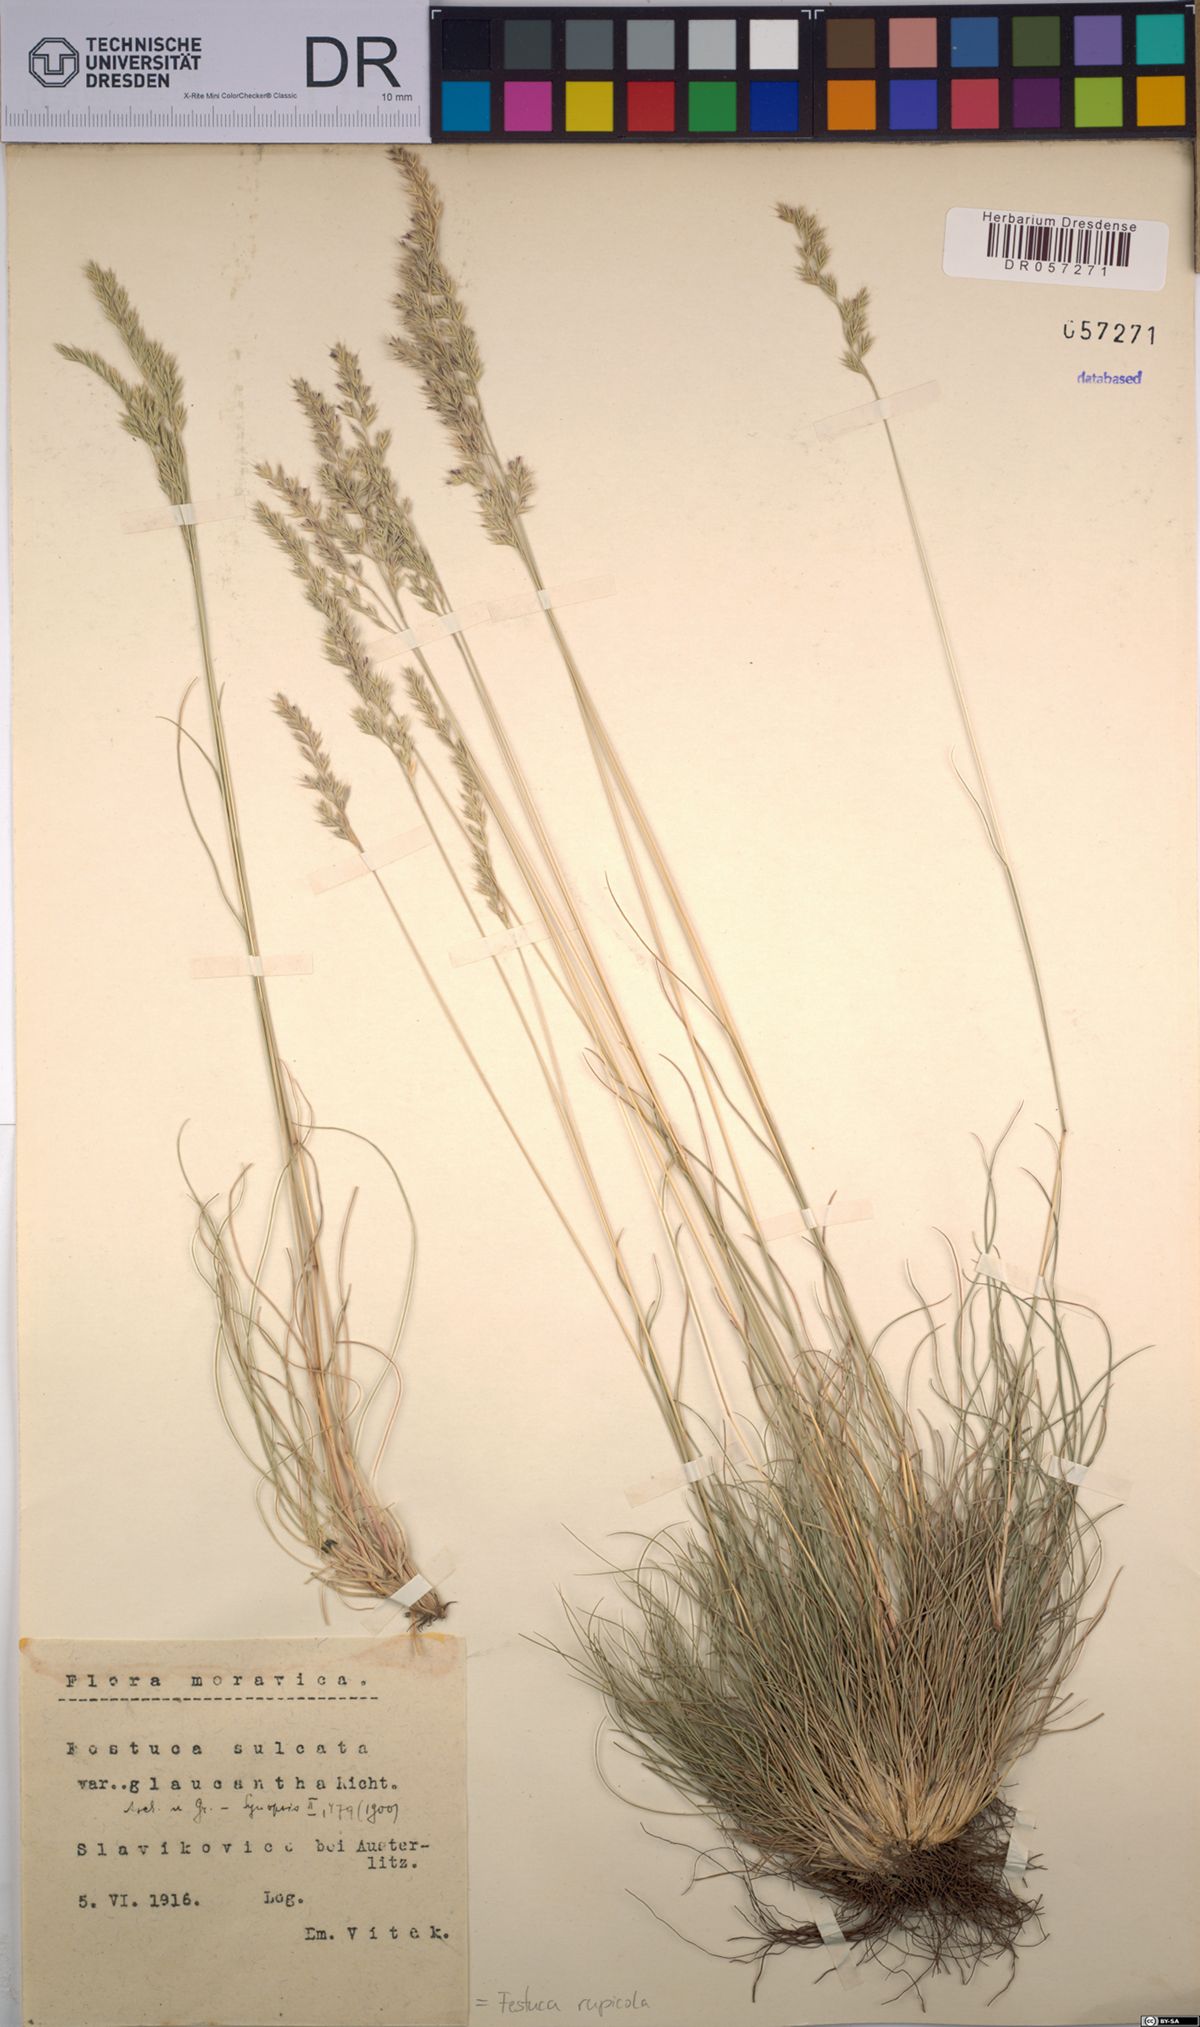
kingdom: Plantae
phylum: Tracheophyta
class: Liliopsida
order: Poales
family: Poaceae
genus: Festuca
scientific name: Festuca rupicola
